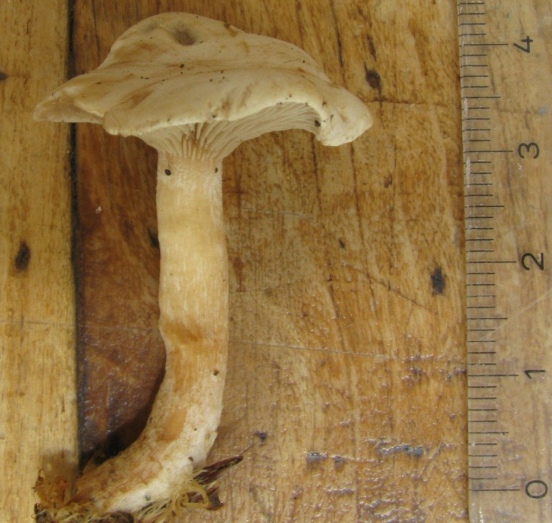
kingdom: Fungi
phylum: Basidiomycota
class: Agaricomycetes
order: Agaricales
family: Tricholomataceae
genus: Ripartites
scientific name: Ripartites tricholoma
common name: almindelig skæghat
